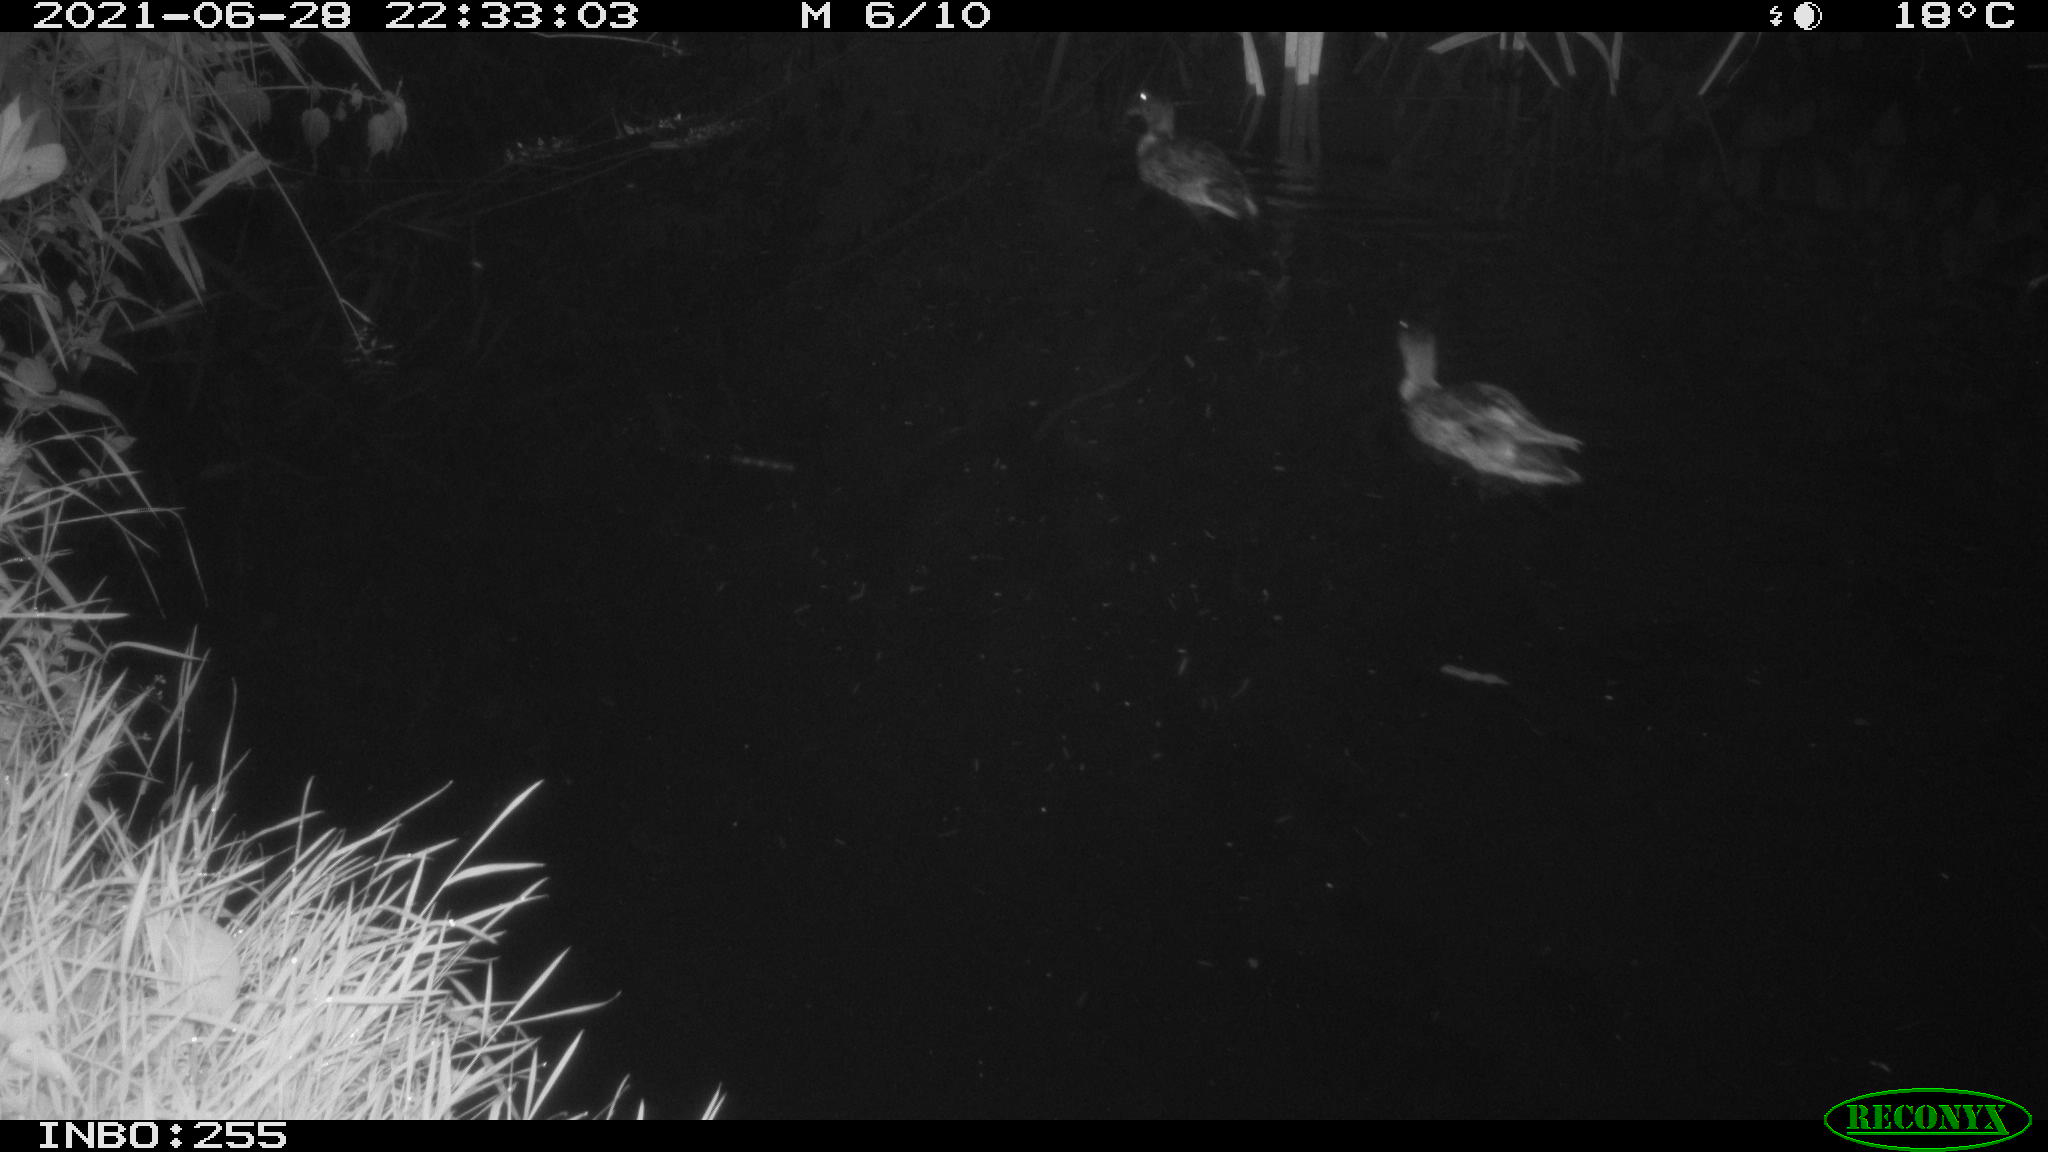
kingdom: Animalia
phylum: Chordata
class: Aves
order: Anseriformes
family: Anatidae
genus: Anas
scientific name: Anas
